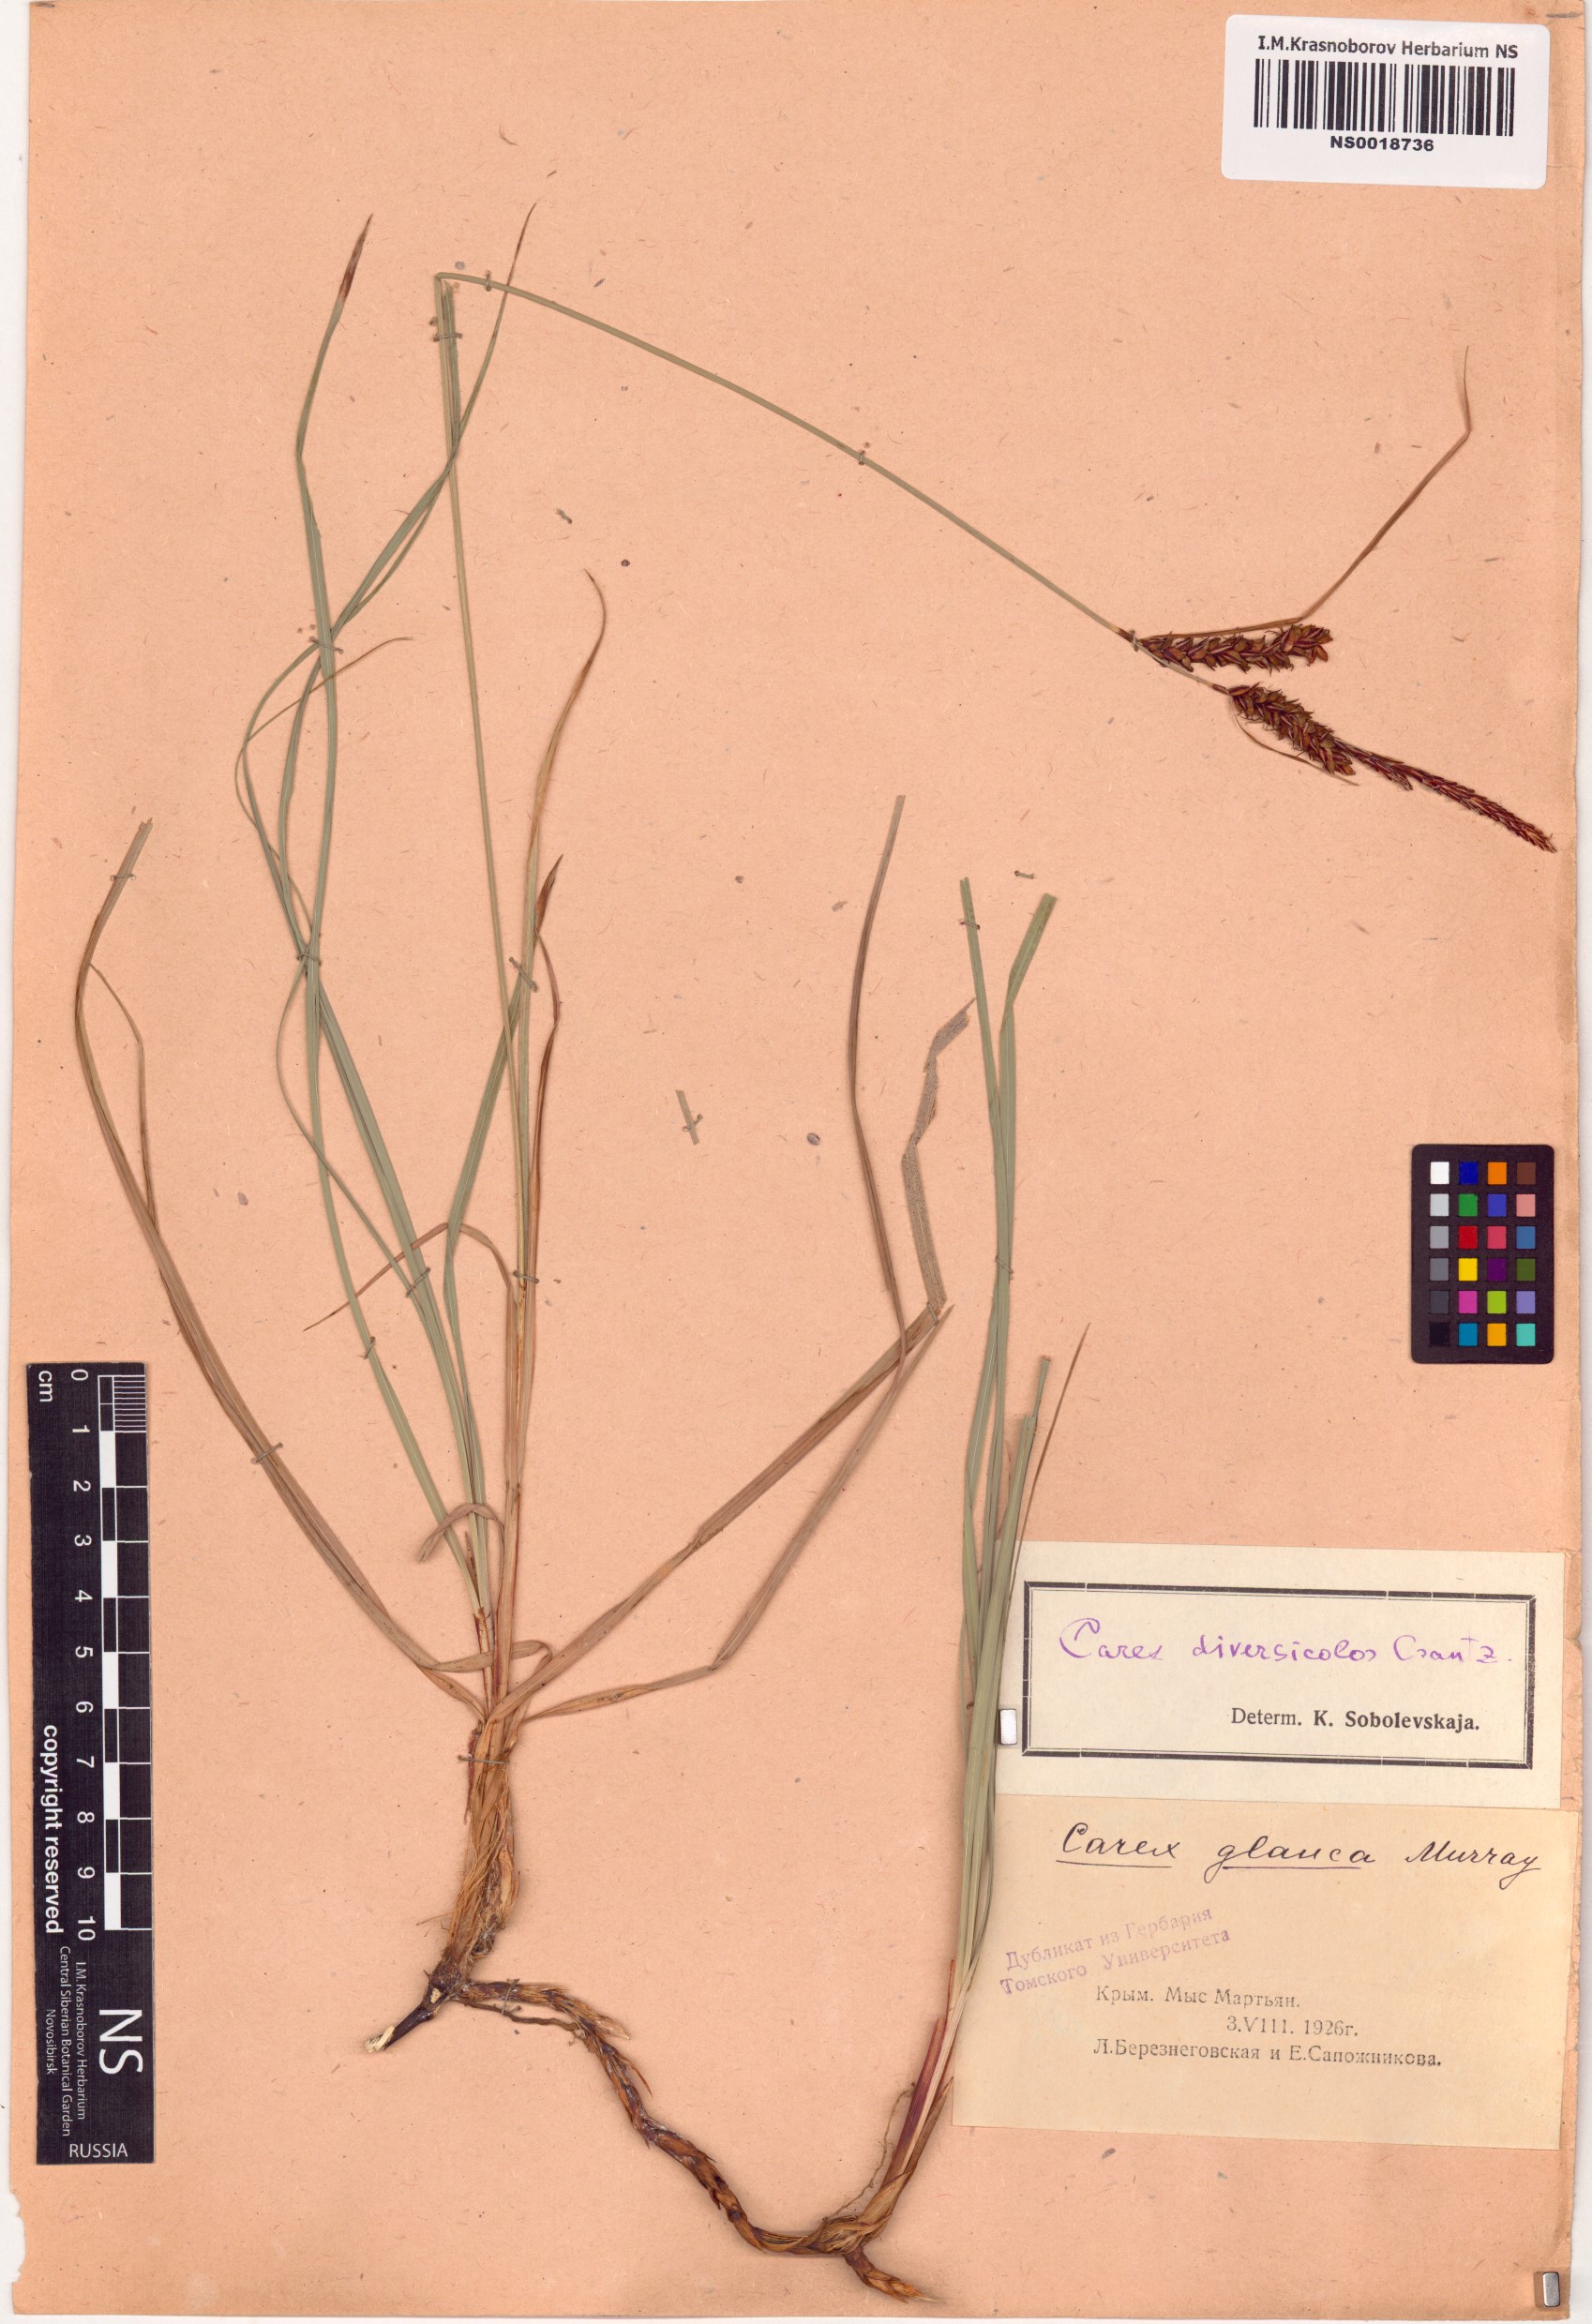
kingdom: Plantae
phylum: Tracheophyta
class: Liliopsida
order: Poales
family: Cyperaceae
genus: Carex
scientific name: Carex flacca
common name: Glaucous sedge
